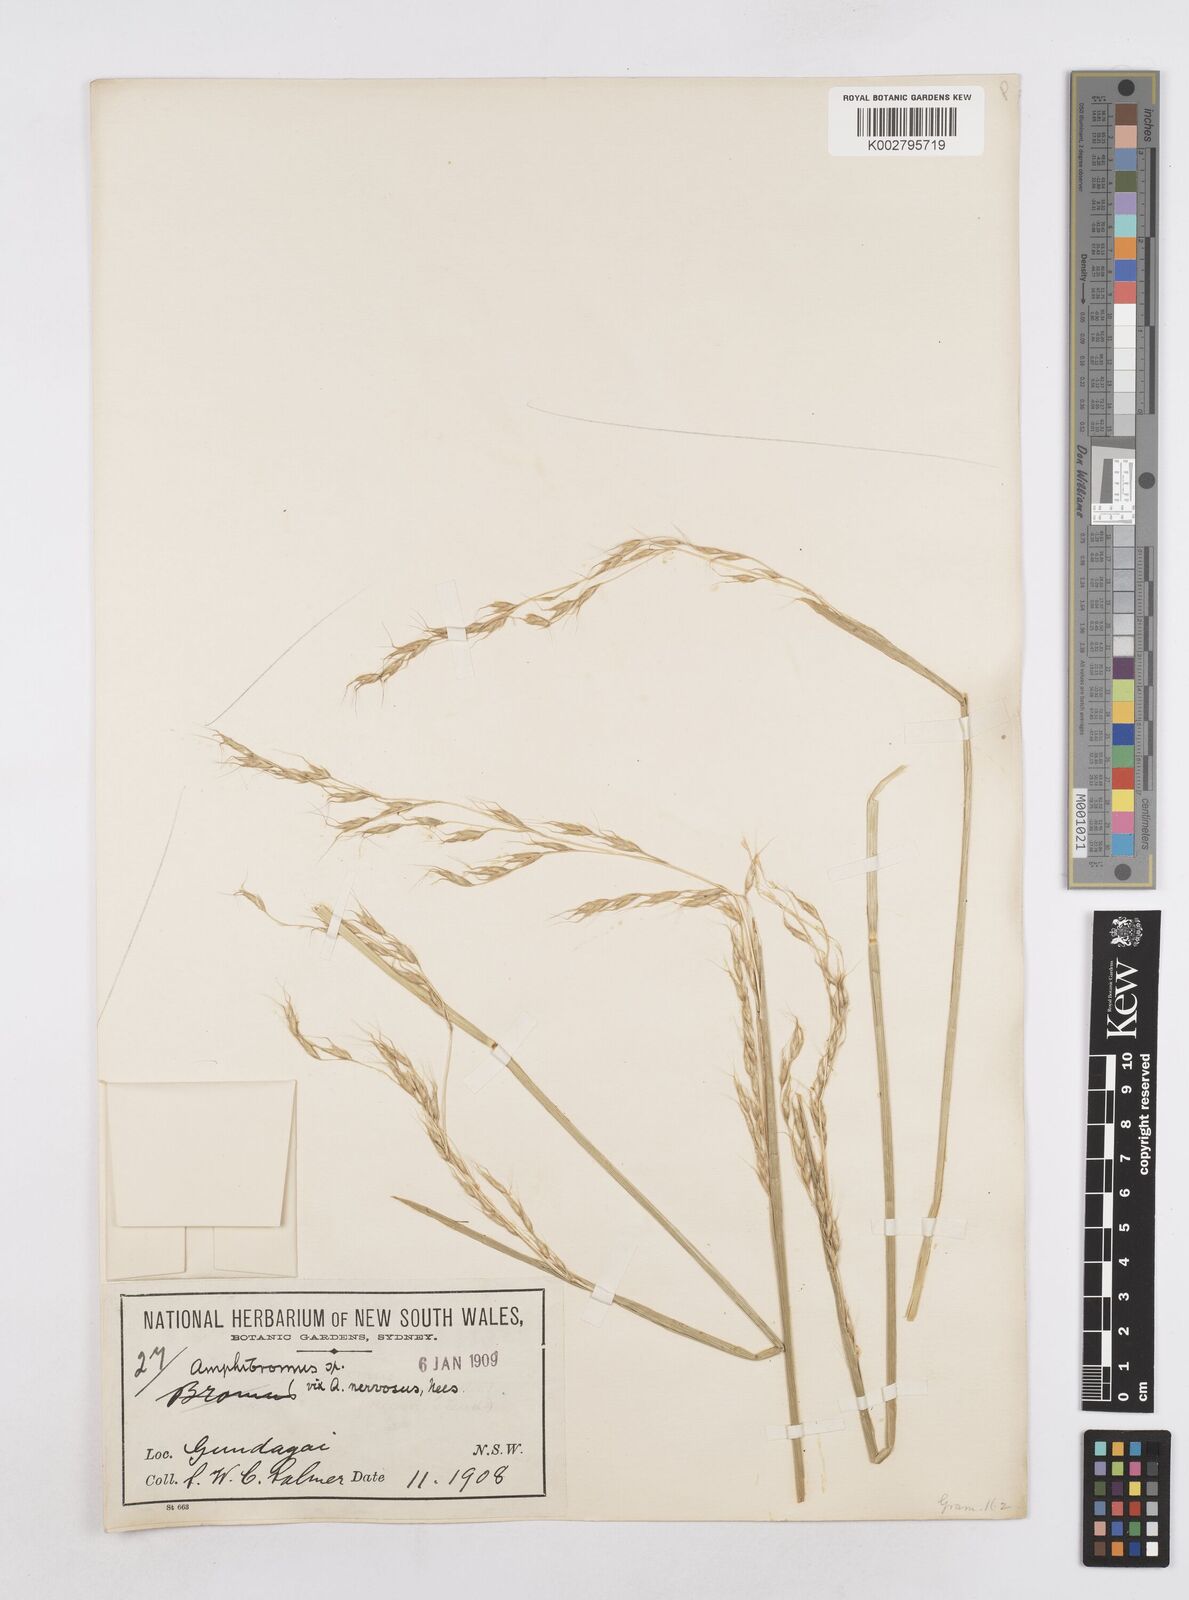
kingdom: Plantae
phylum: Tracheophyta
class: Liliopsida
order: Poales
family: Poaceae
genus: Helictotrichon
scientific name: Helictotrichon
